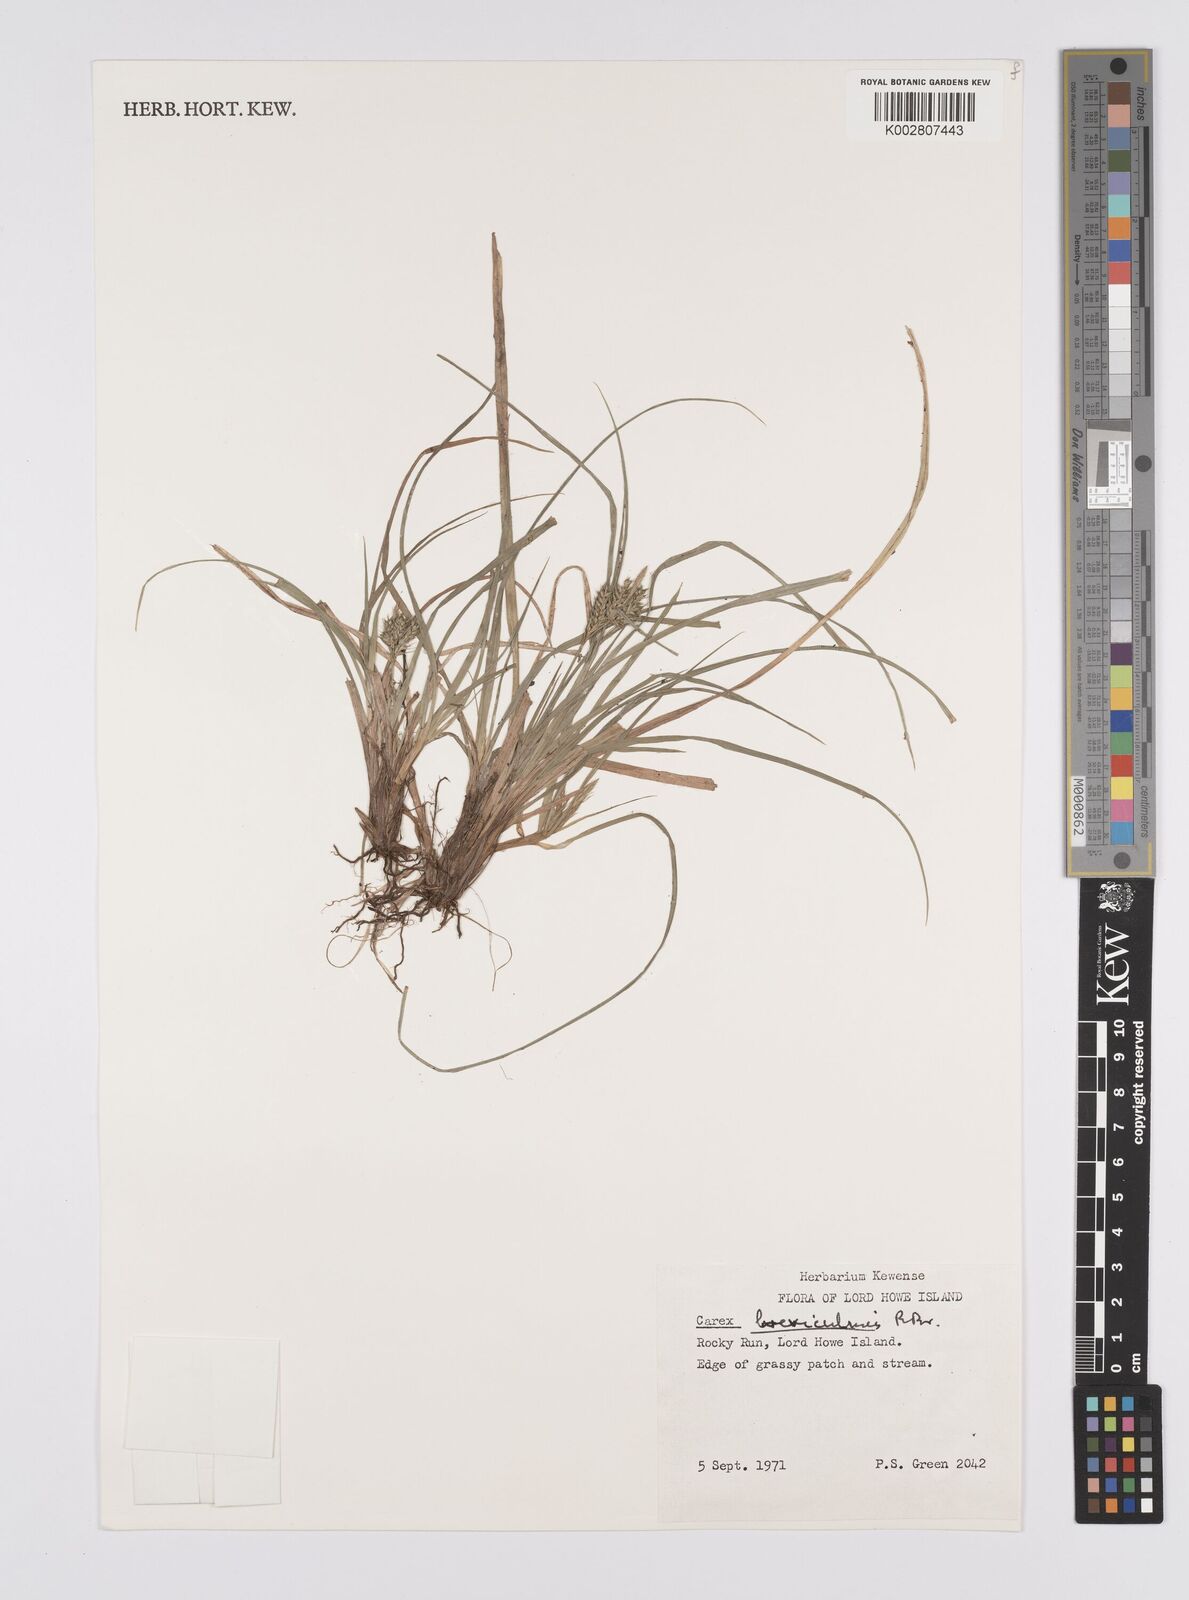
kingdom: Plantae
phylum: Tracheophyta
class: Liliopsida
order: Poales
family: Cyperaceae
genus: Carex
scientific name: Carex breviculmis
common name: Asian shortstem sedge
